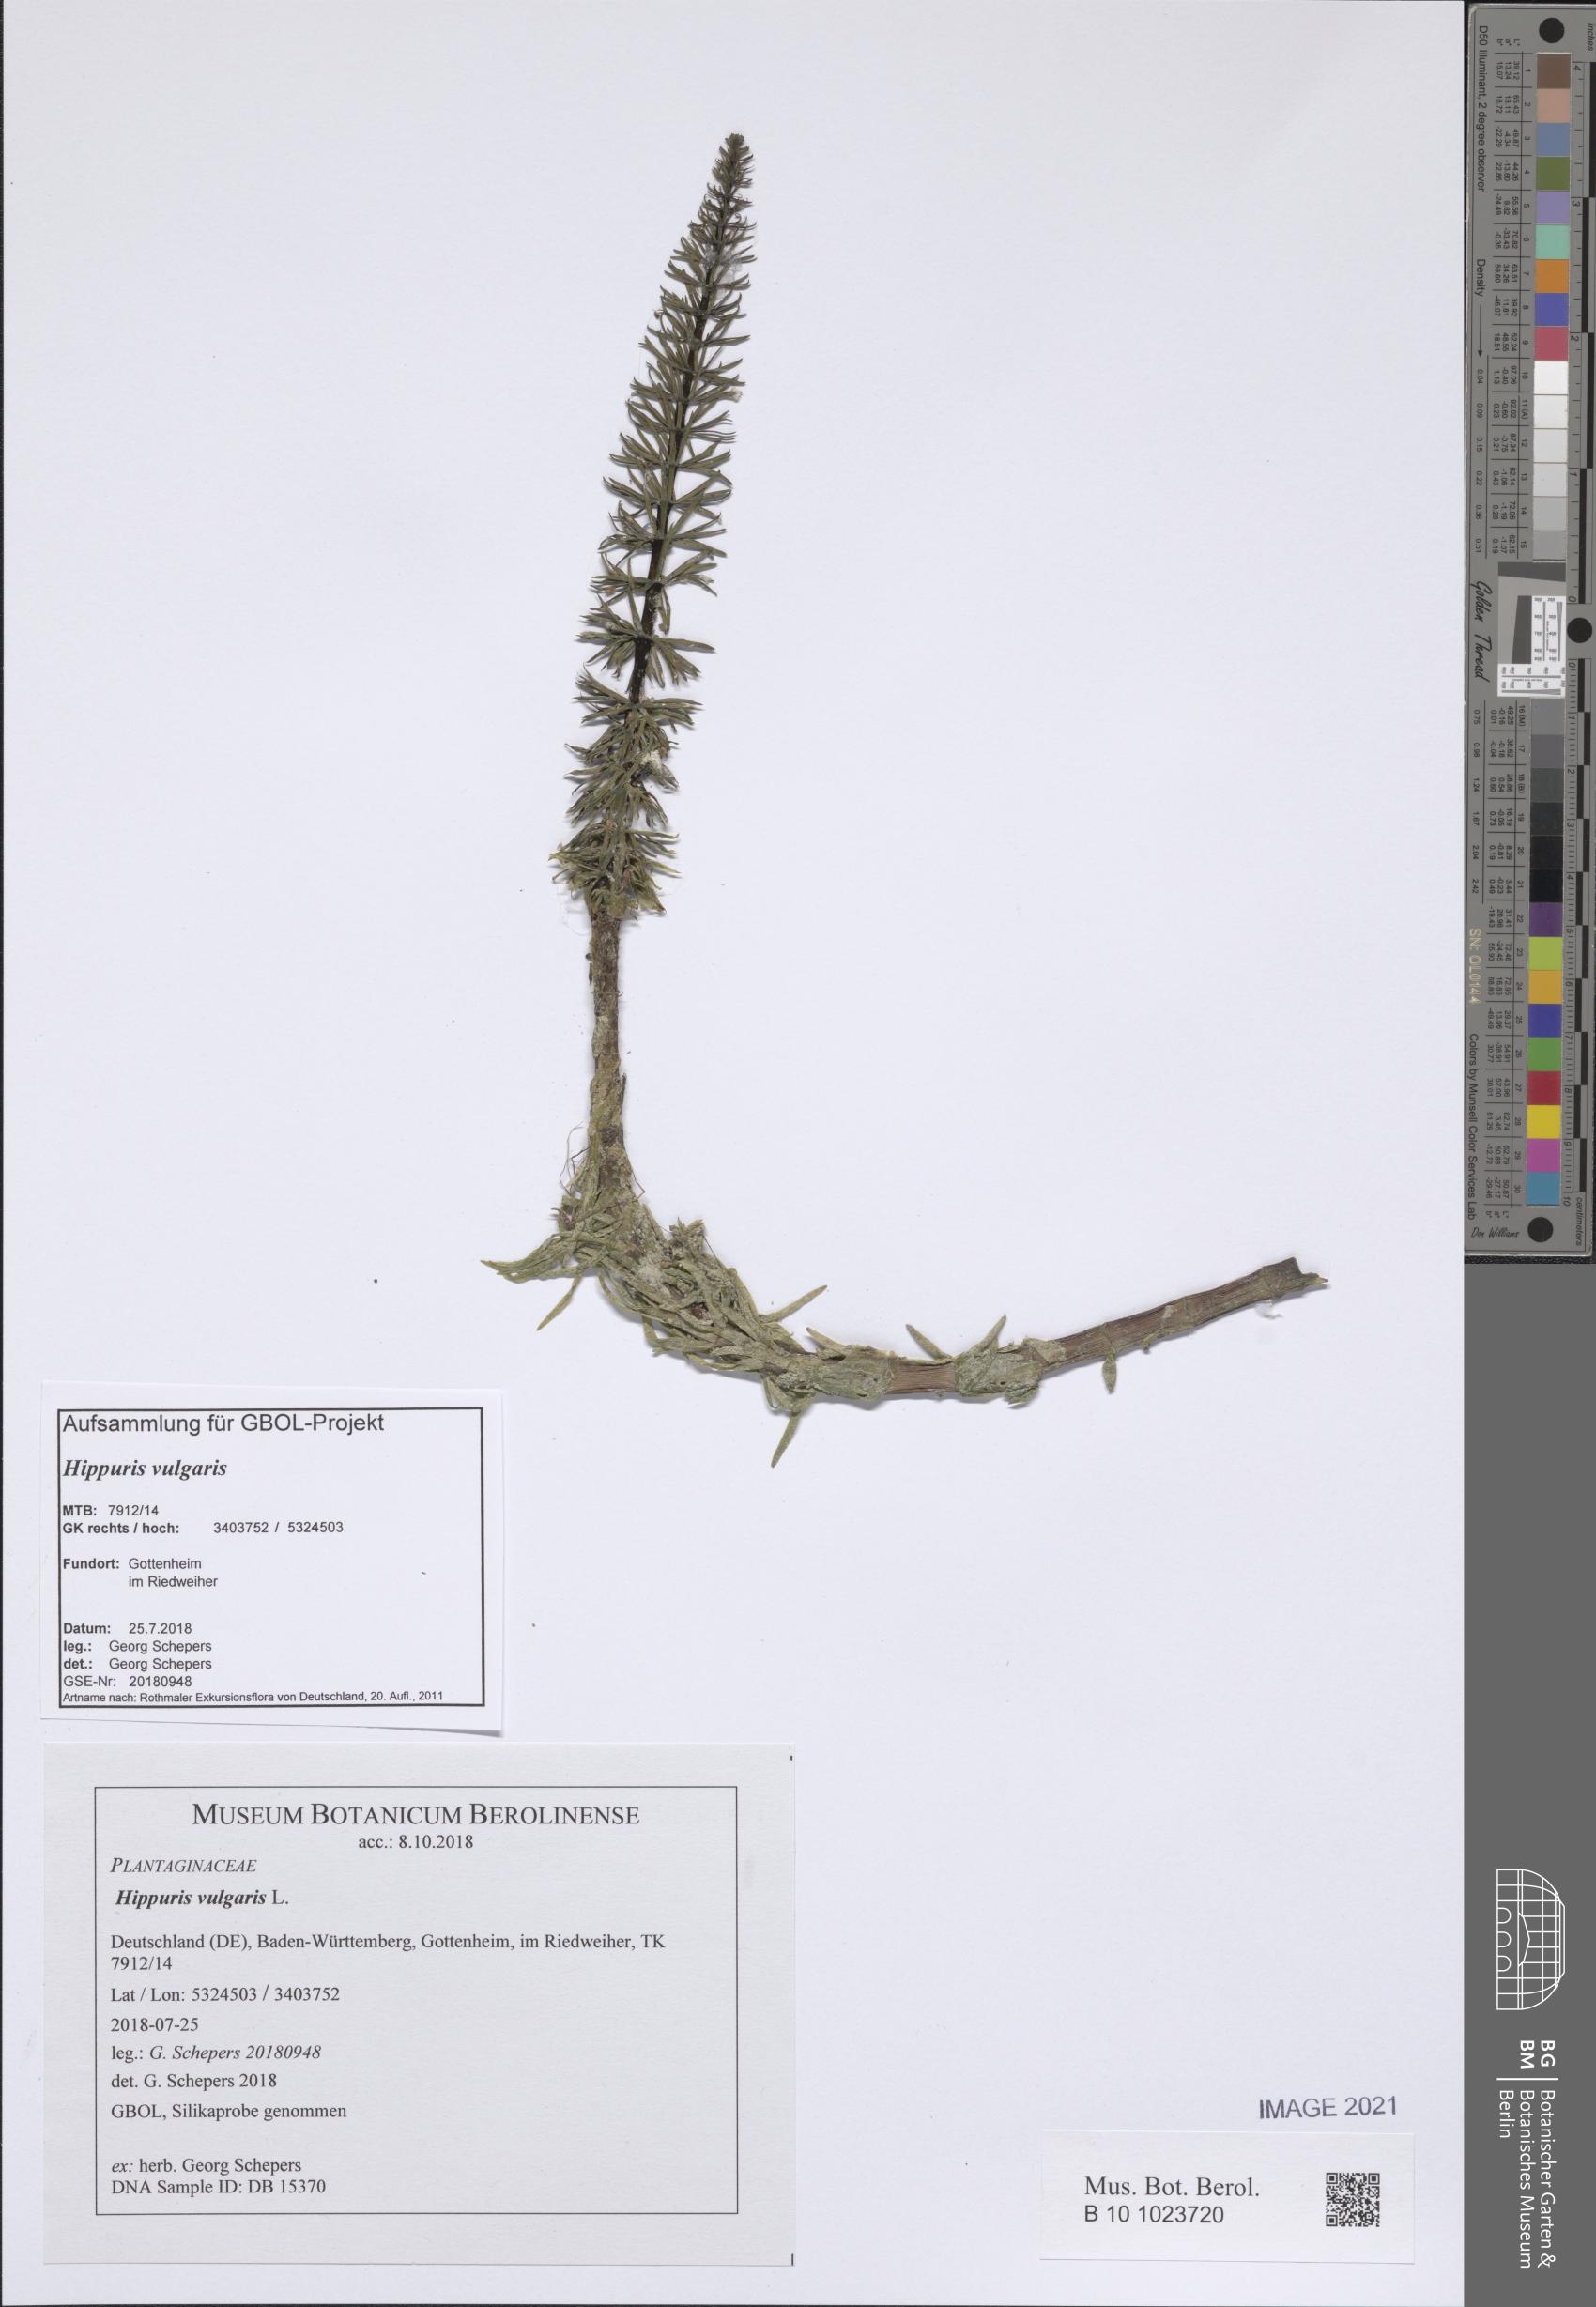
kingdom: Plantae
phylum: Tracheophyta
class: Magnoliopsida
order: Lamiales
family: Plantaginaceae
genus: Hippuris
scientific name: Hippuris vulgaris
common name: Mare's-tail
